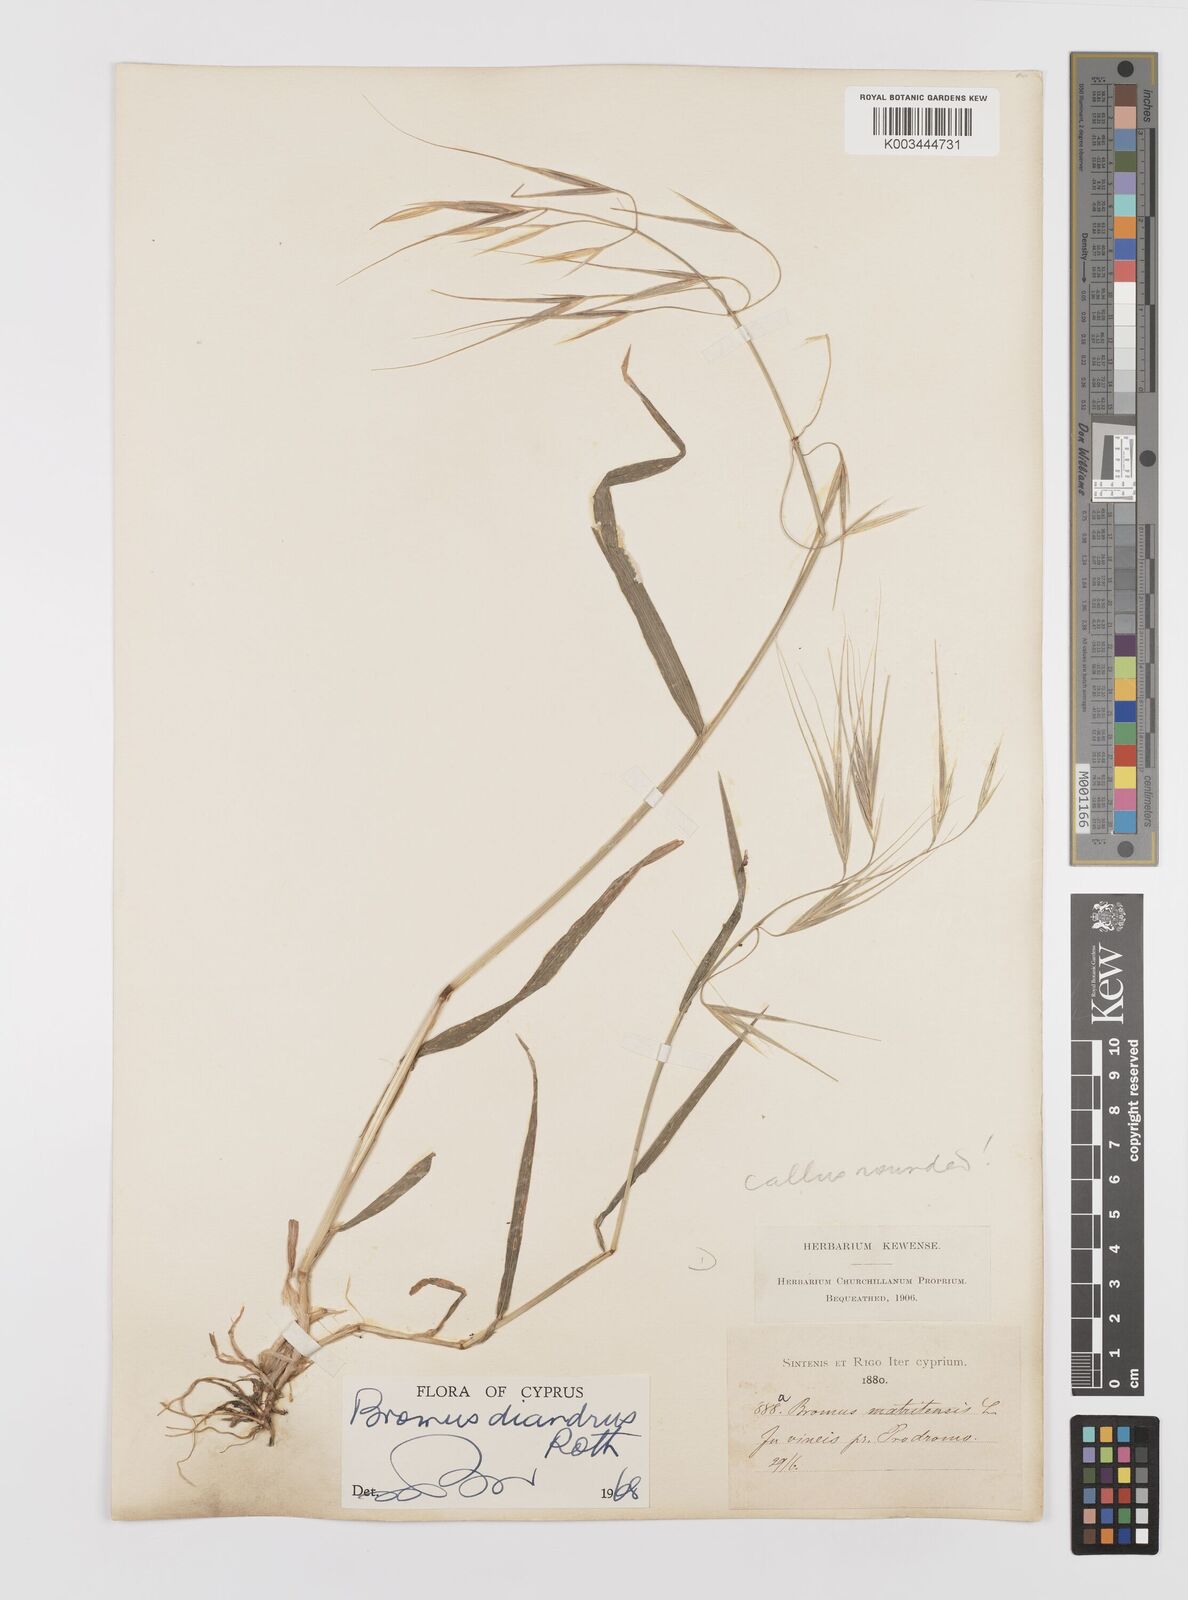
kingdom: Plantae
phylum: Tracheophyta
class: Liliopsida
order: Poales
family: Poaceae
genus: Bromus
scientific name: Bromus diandrus
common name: Ripgut brome
